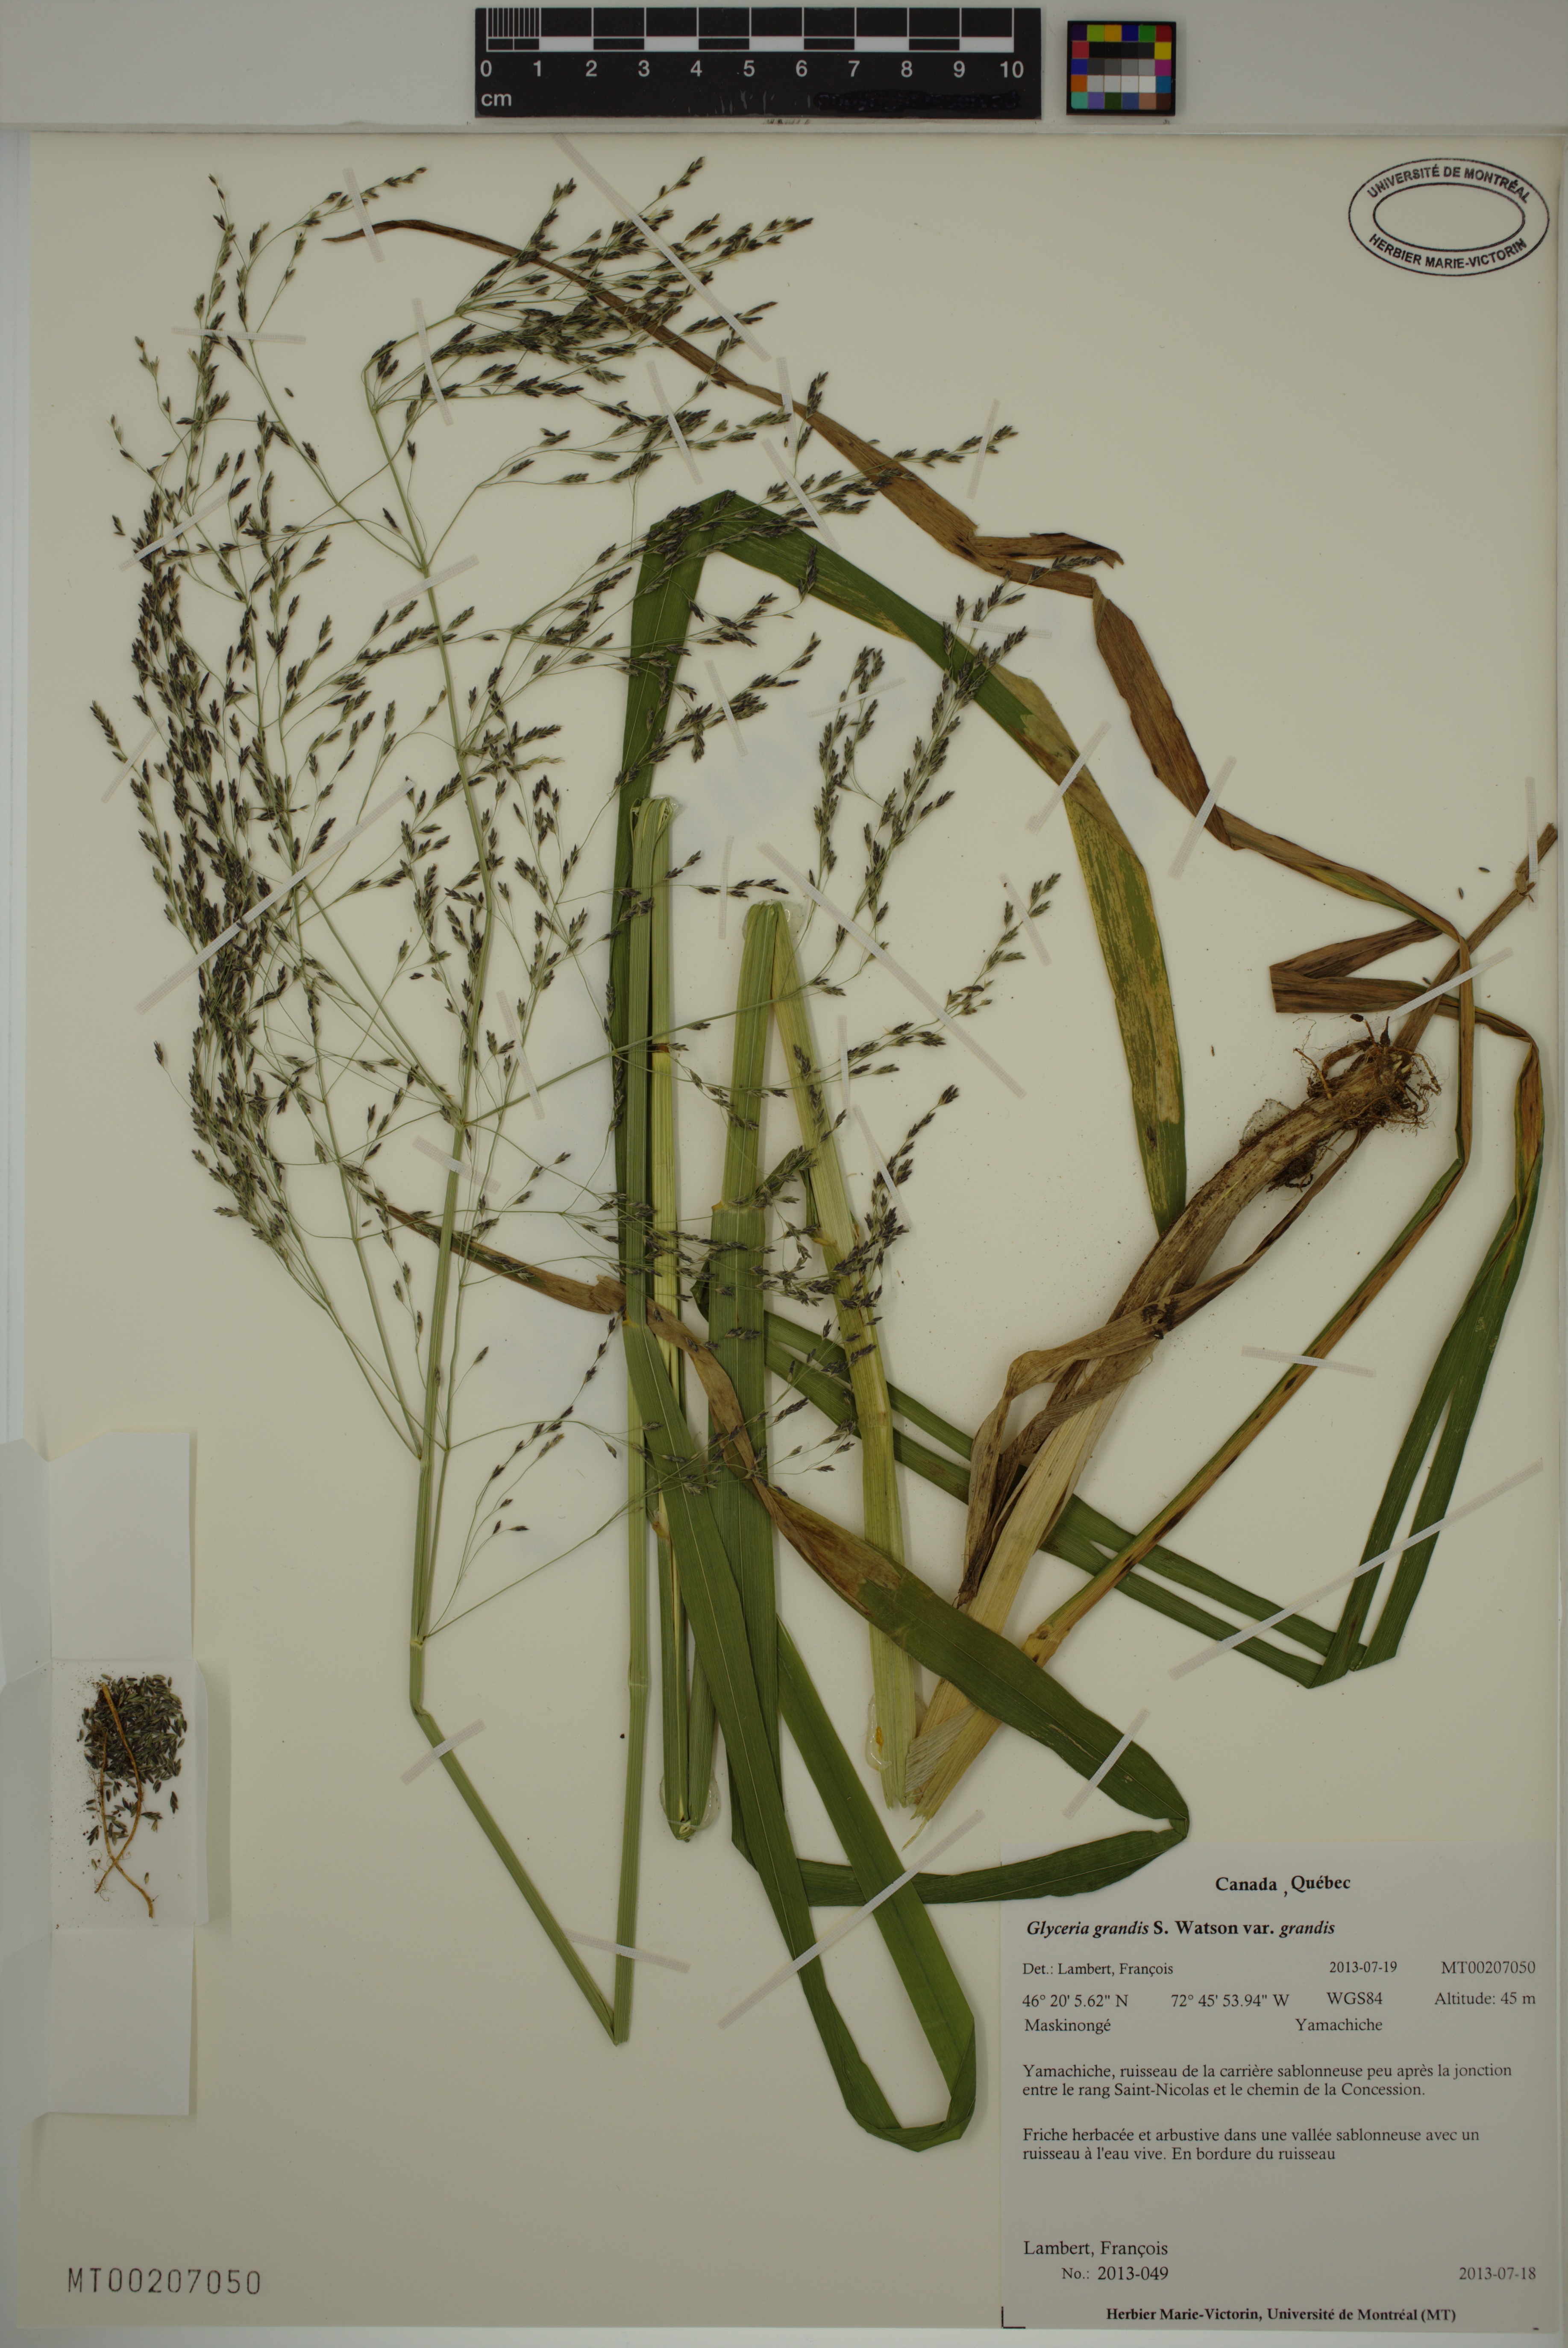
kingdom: Plantae
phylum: Tracheophyta
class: Liliopsida
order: Poales
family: Poaceae
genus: Glyceria
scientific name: Glyceria grandis
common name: American glyceria
